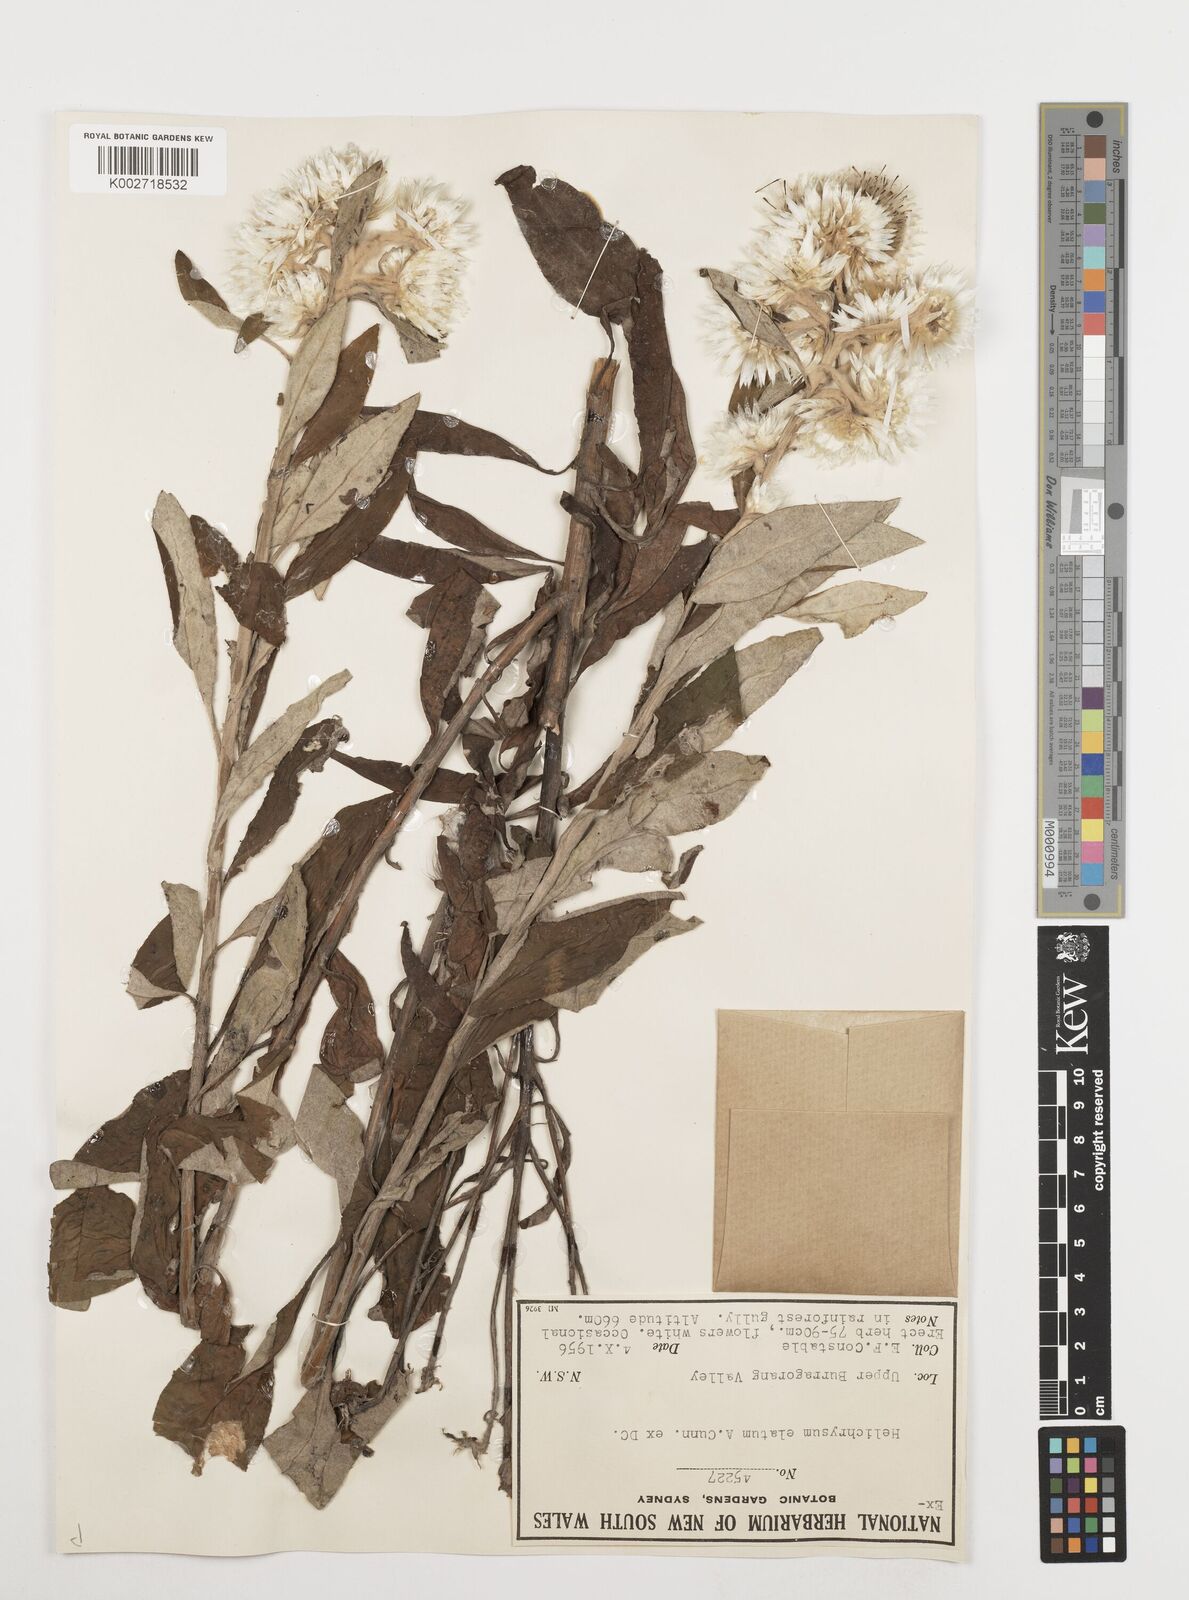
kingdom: Plantae
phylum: Tracheophyta
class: Magnoliopsida
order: Asterales
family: Asteraceae
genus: Leucozoma
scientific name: Leucozoma elatum
